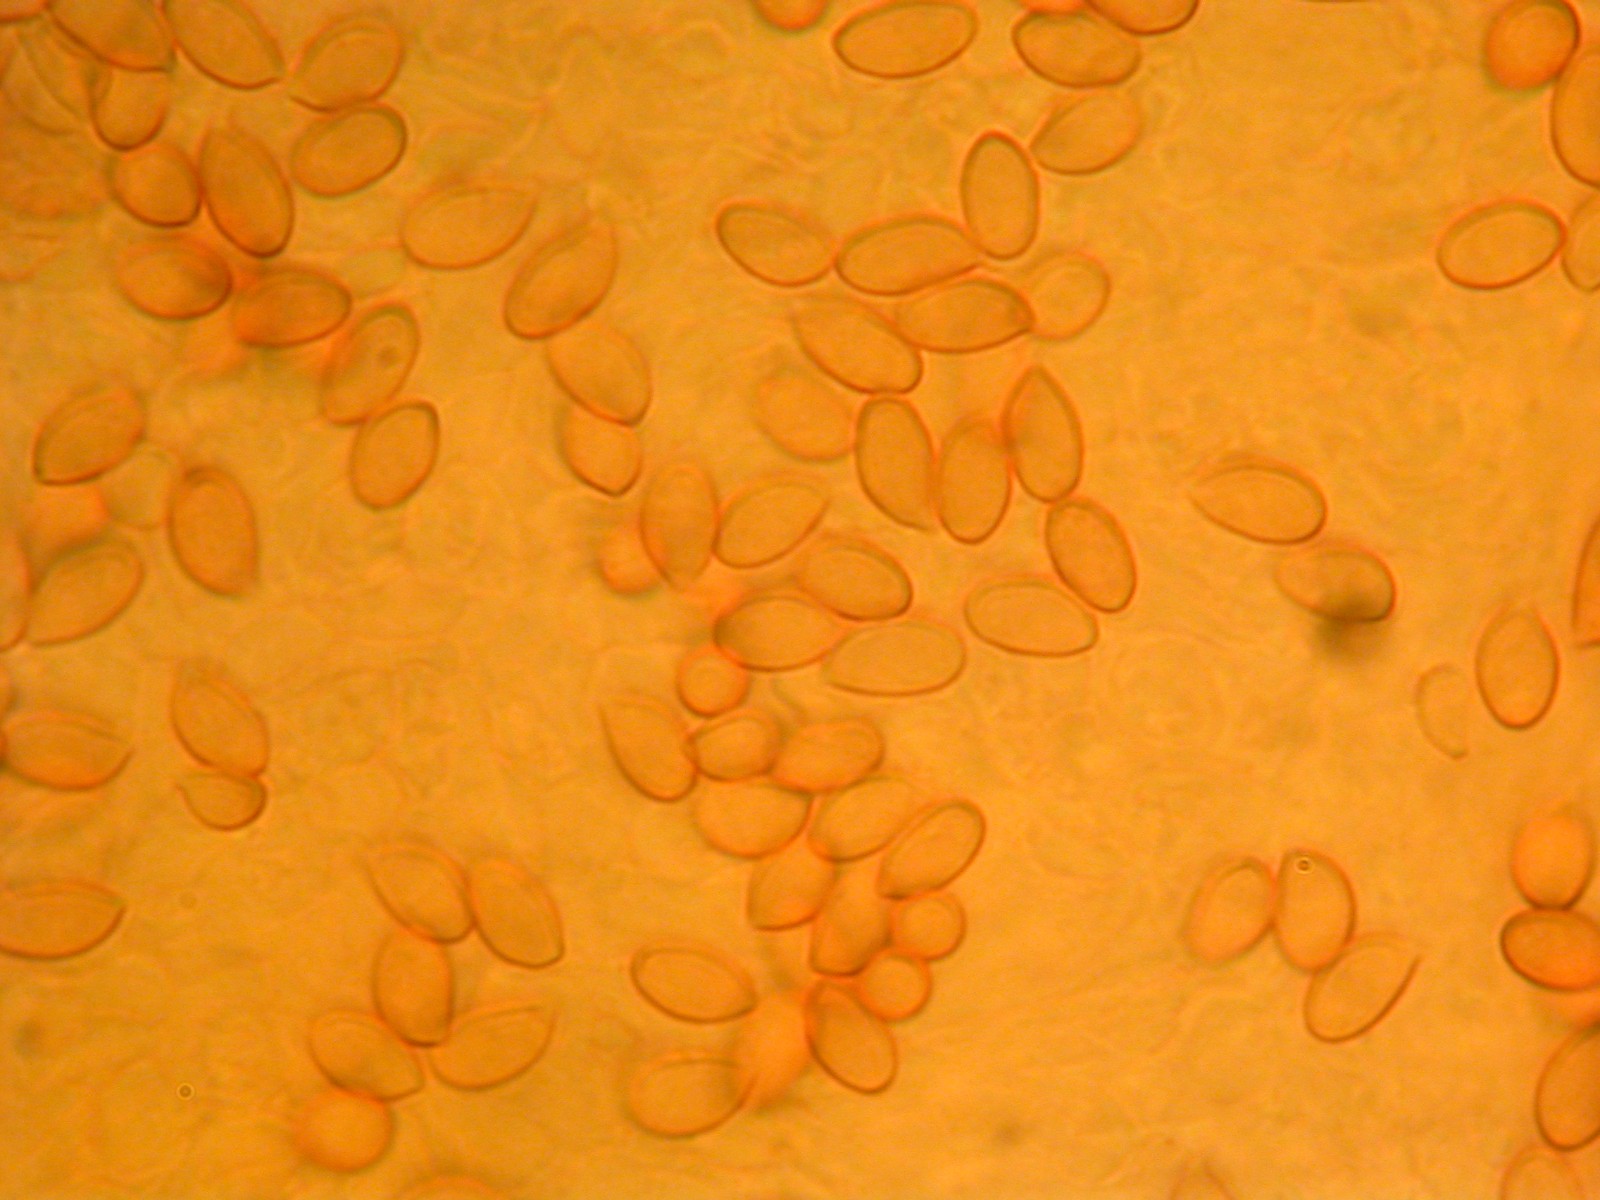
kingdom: Fungi
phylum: Basidiomycota
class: Agaricomycetes
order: Agaricales
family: Cortinariaceae
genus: Thaxterogaster
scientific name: Thaxterogaster
